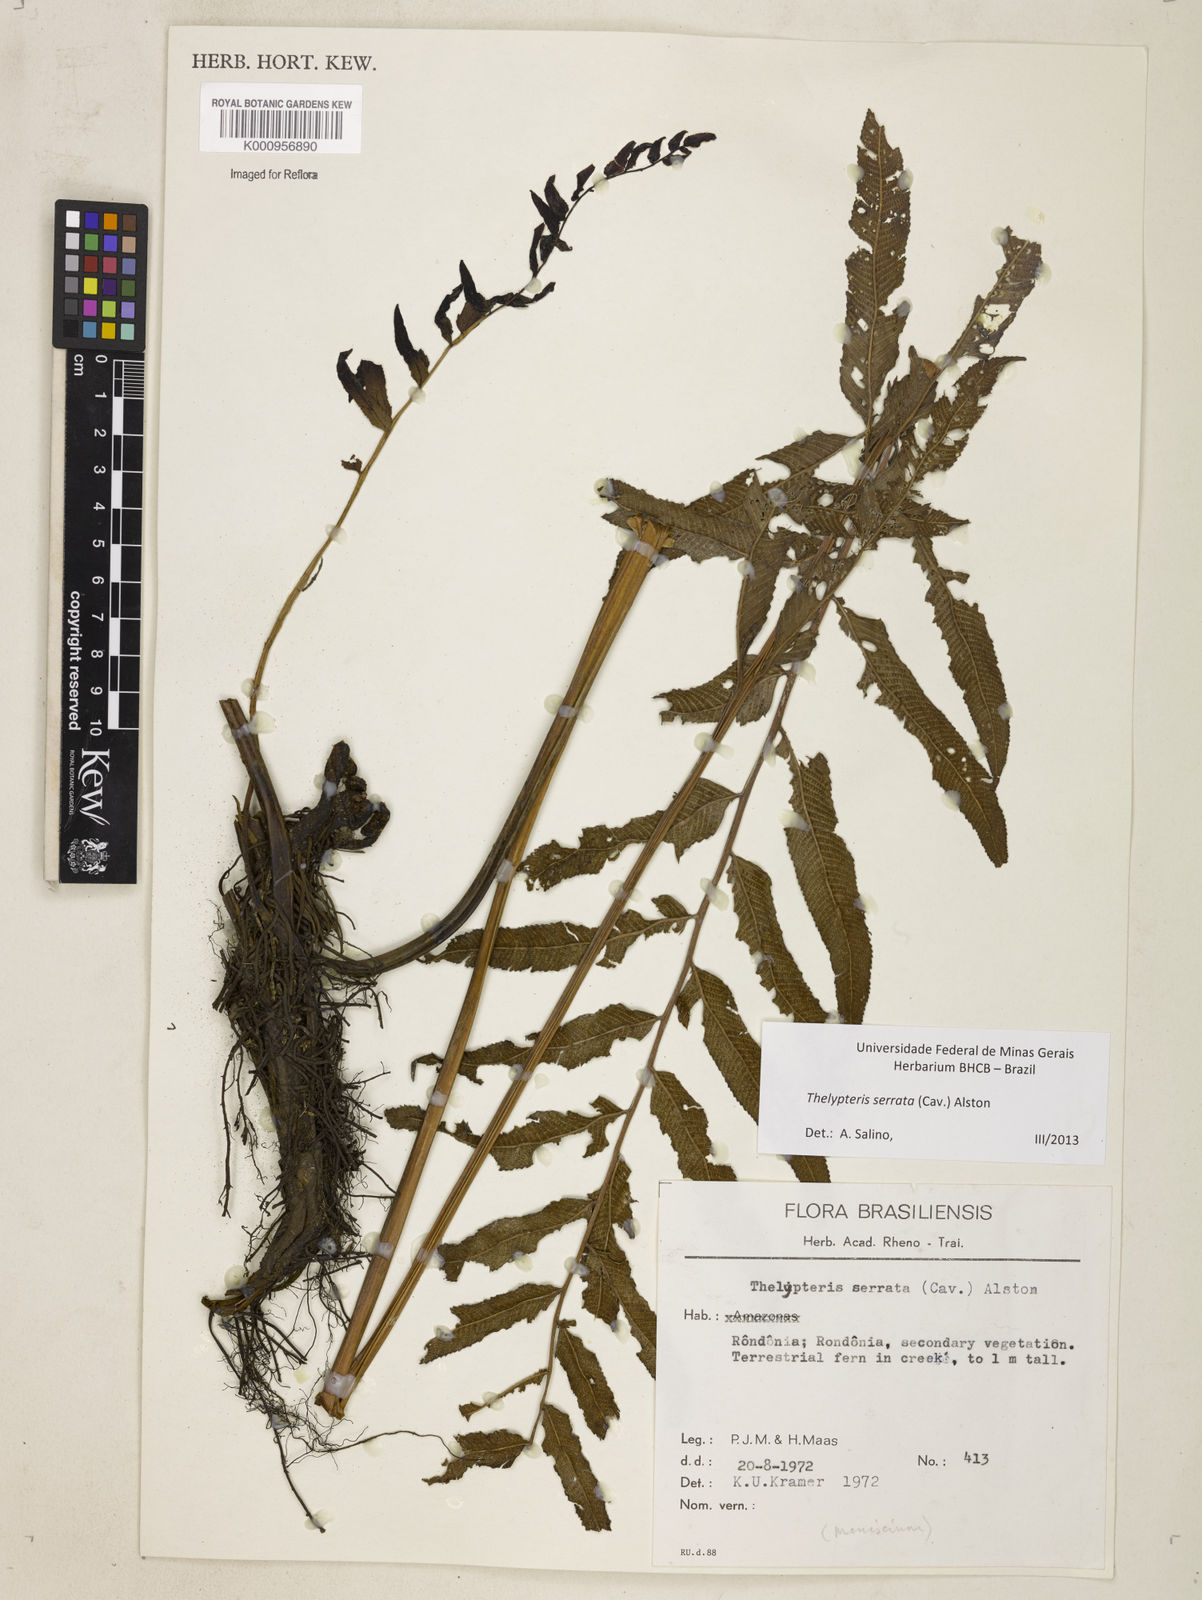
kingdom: Plantae
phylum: Tracheophyta
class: Polypodiopsida
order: Polypodiales
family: Thelypteridaceae
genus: Meniscium
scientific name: Meniscium serratum
